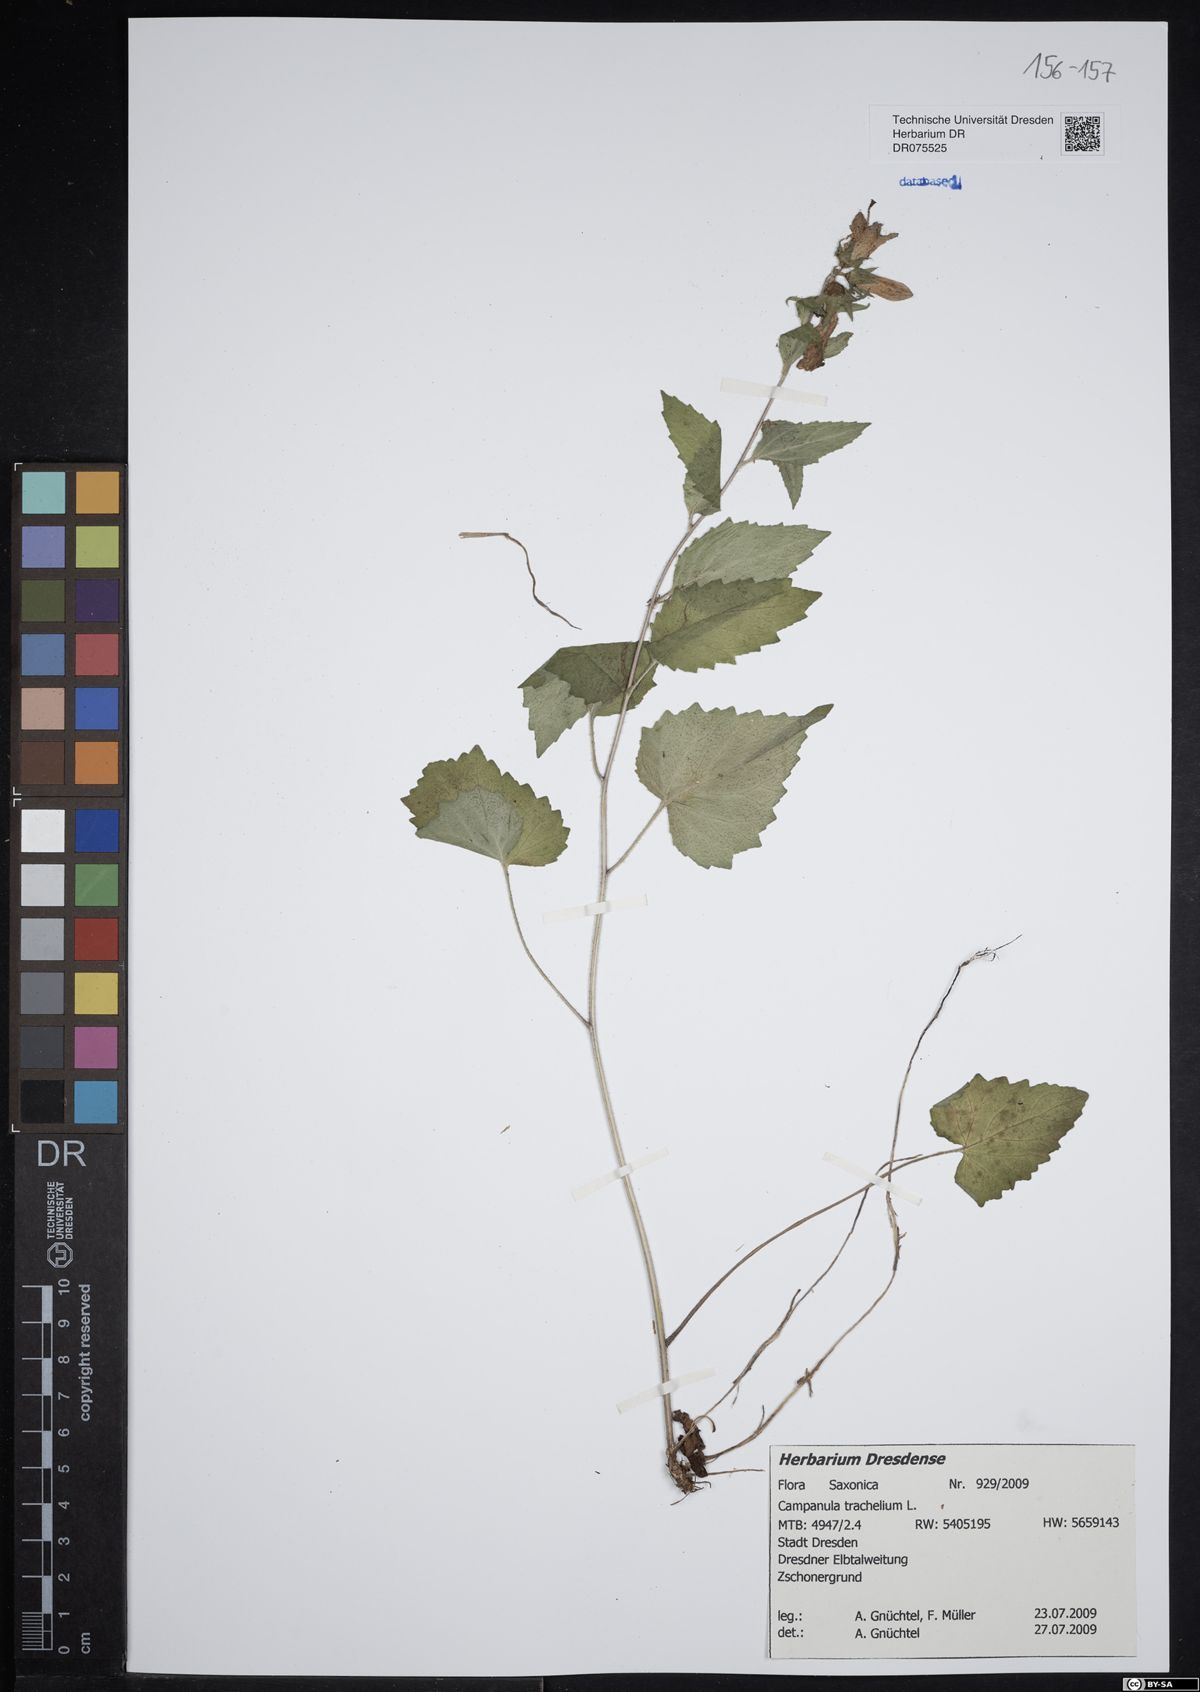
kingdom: Plantae
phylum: Tracheophyta
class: Magnoliopsida
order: Asterales
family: Campanulaceae
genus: Campanula
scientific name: Campanula trachelium
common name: Nettle-leaved bellflower
